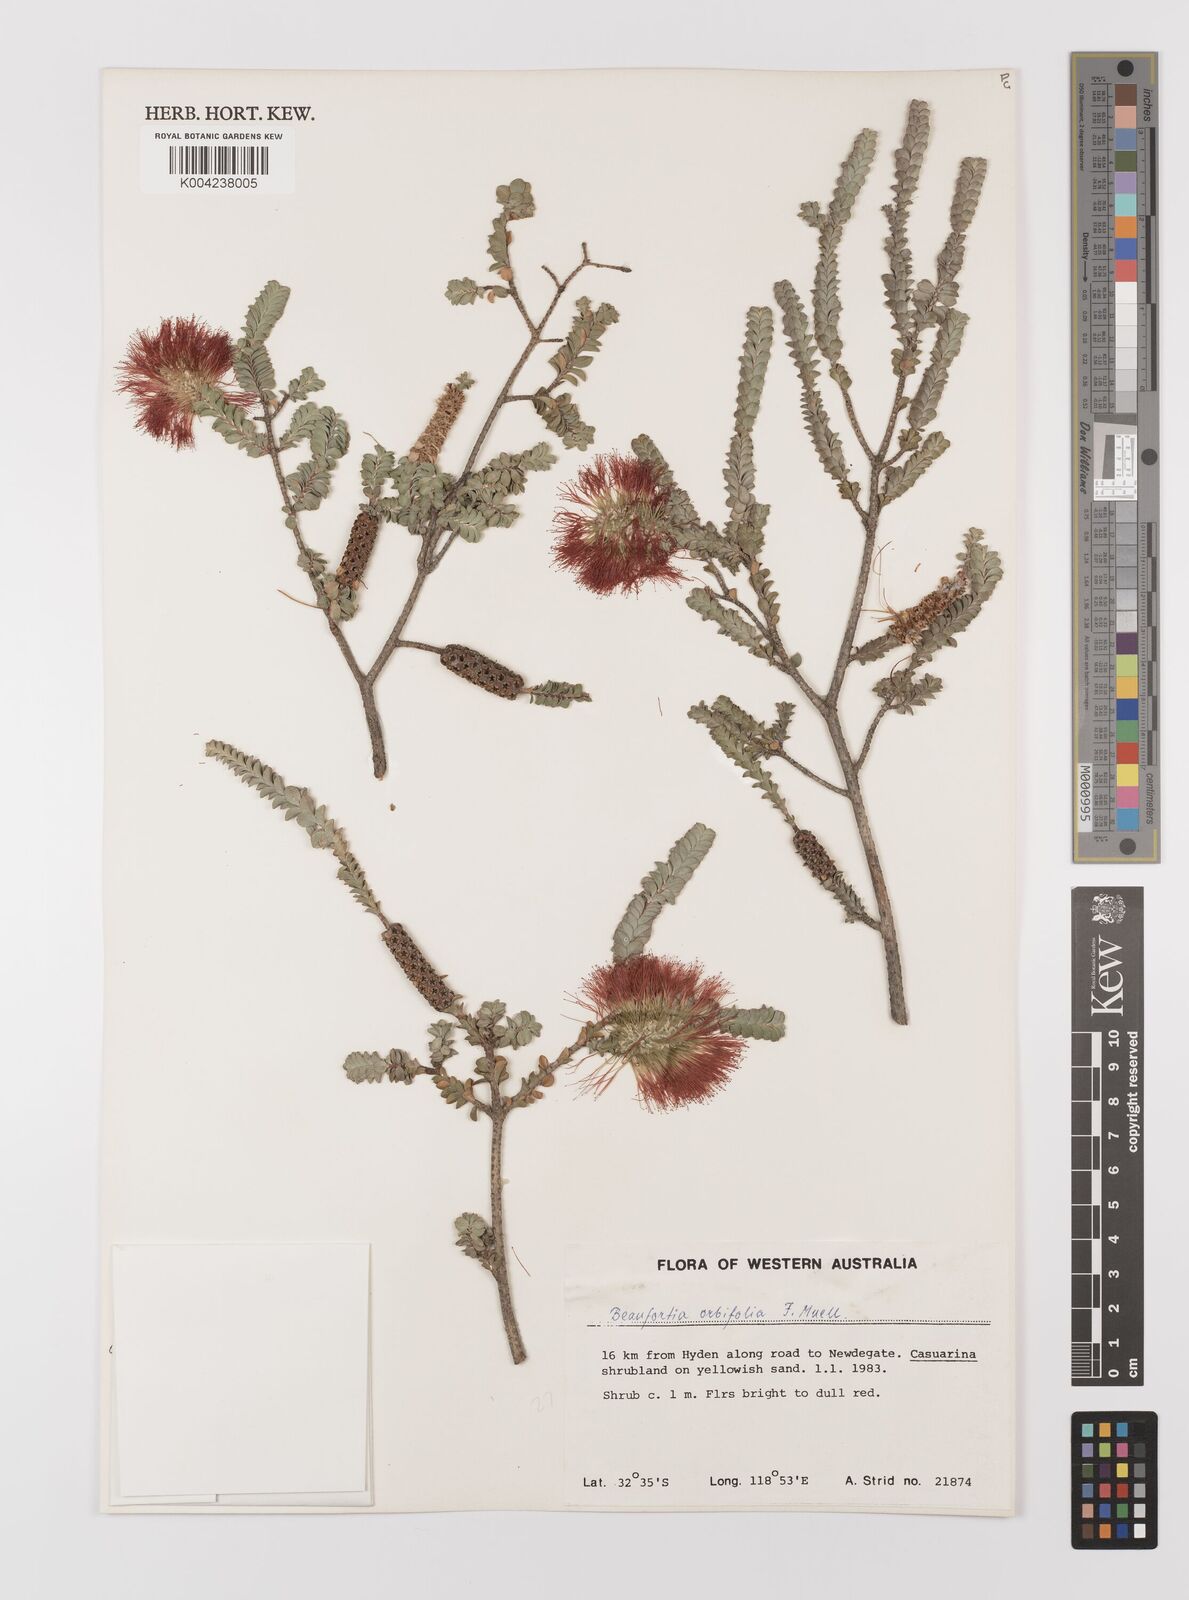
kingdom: Plantae
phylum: Tracheophyta
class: Magnoliopsida
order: Myrtales
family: Myrtaceae
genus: Melaleuca
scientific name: Melaleuca orbifolia
